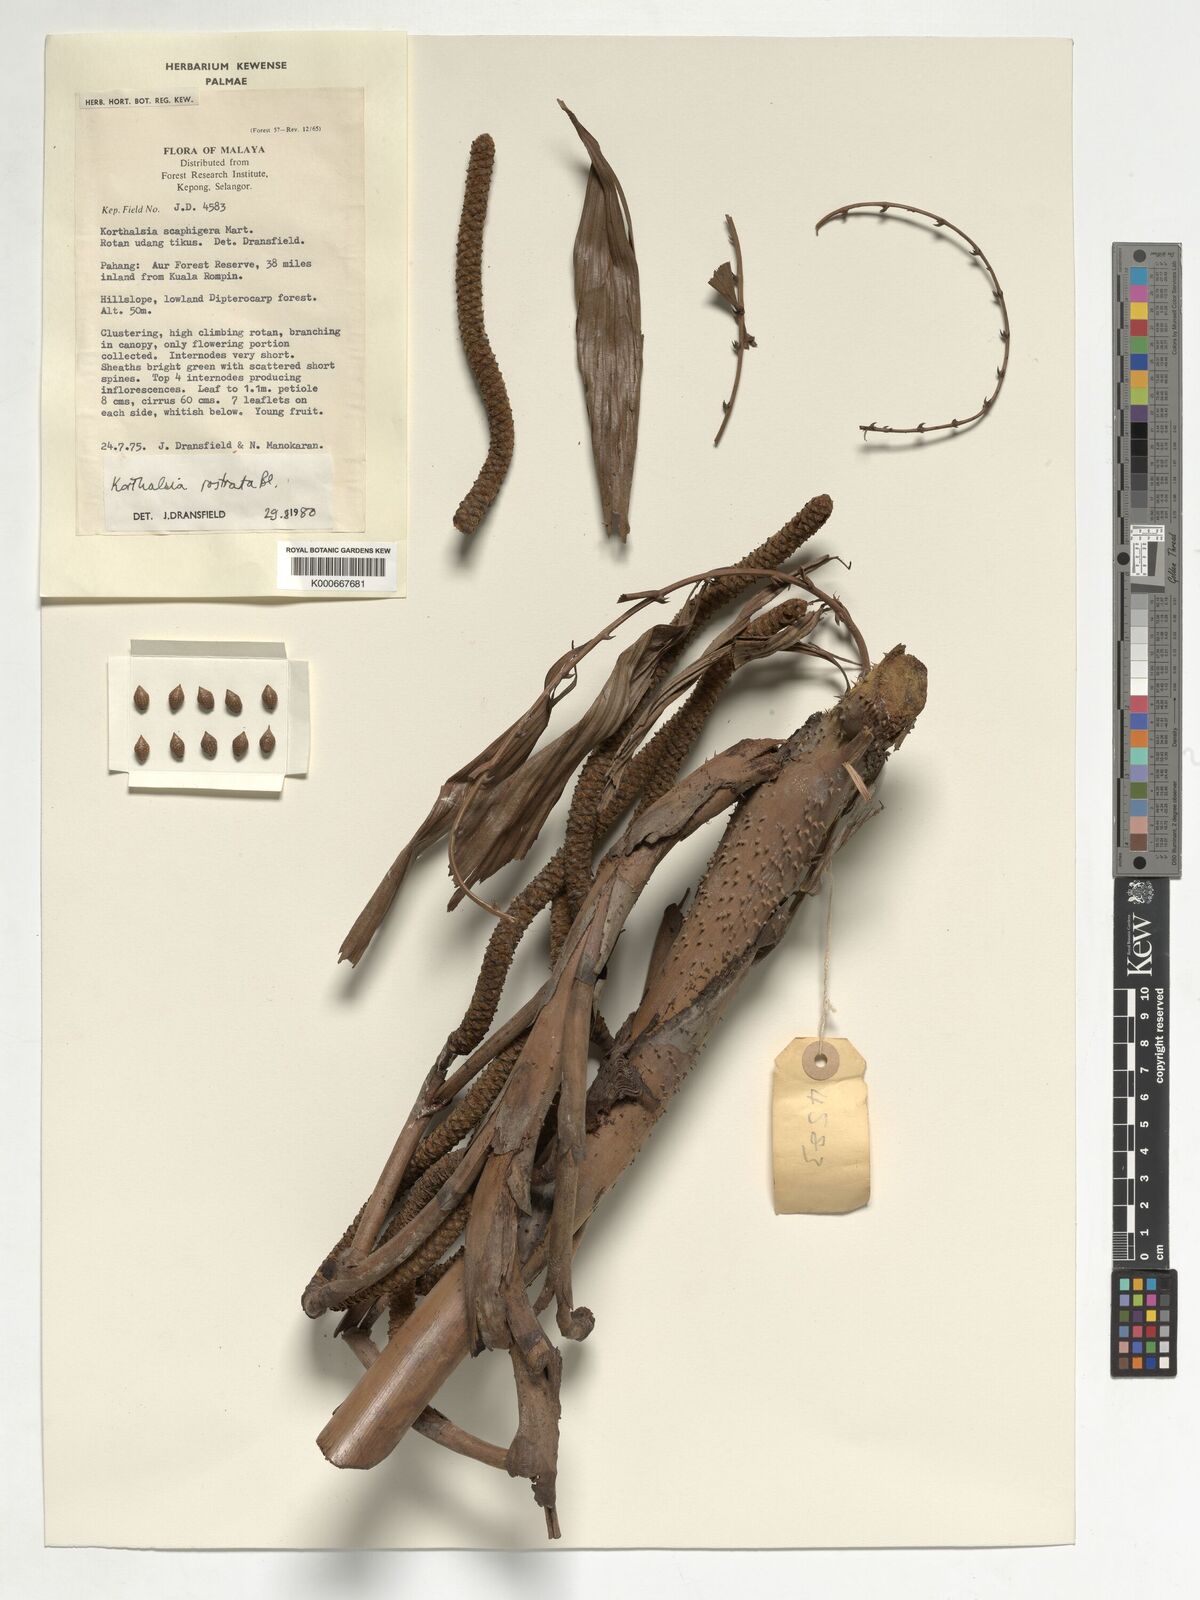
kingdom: Plantae
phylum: Tracheophyta
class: Liliopsida
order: Arecales
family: Arecaceae
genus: Korthalsia
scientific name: Korthalsia rostrata
